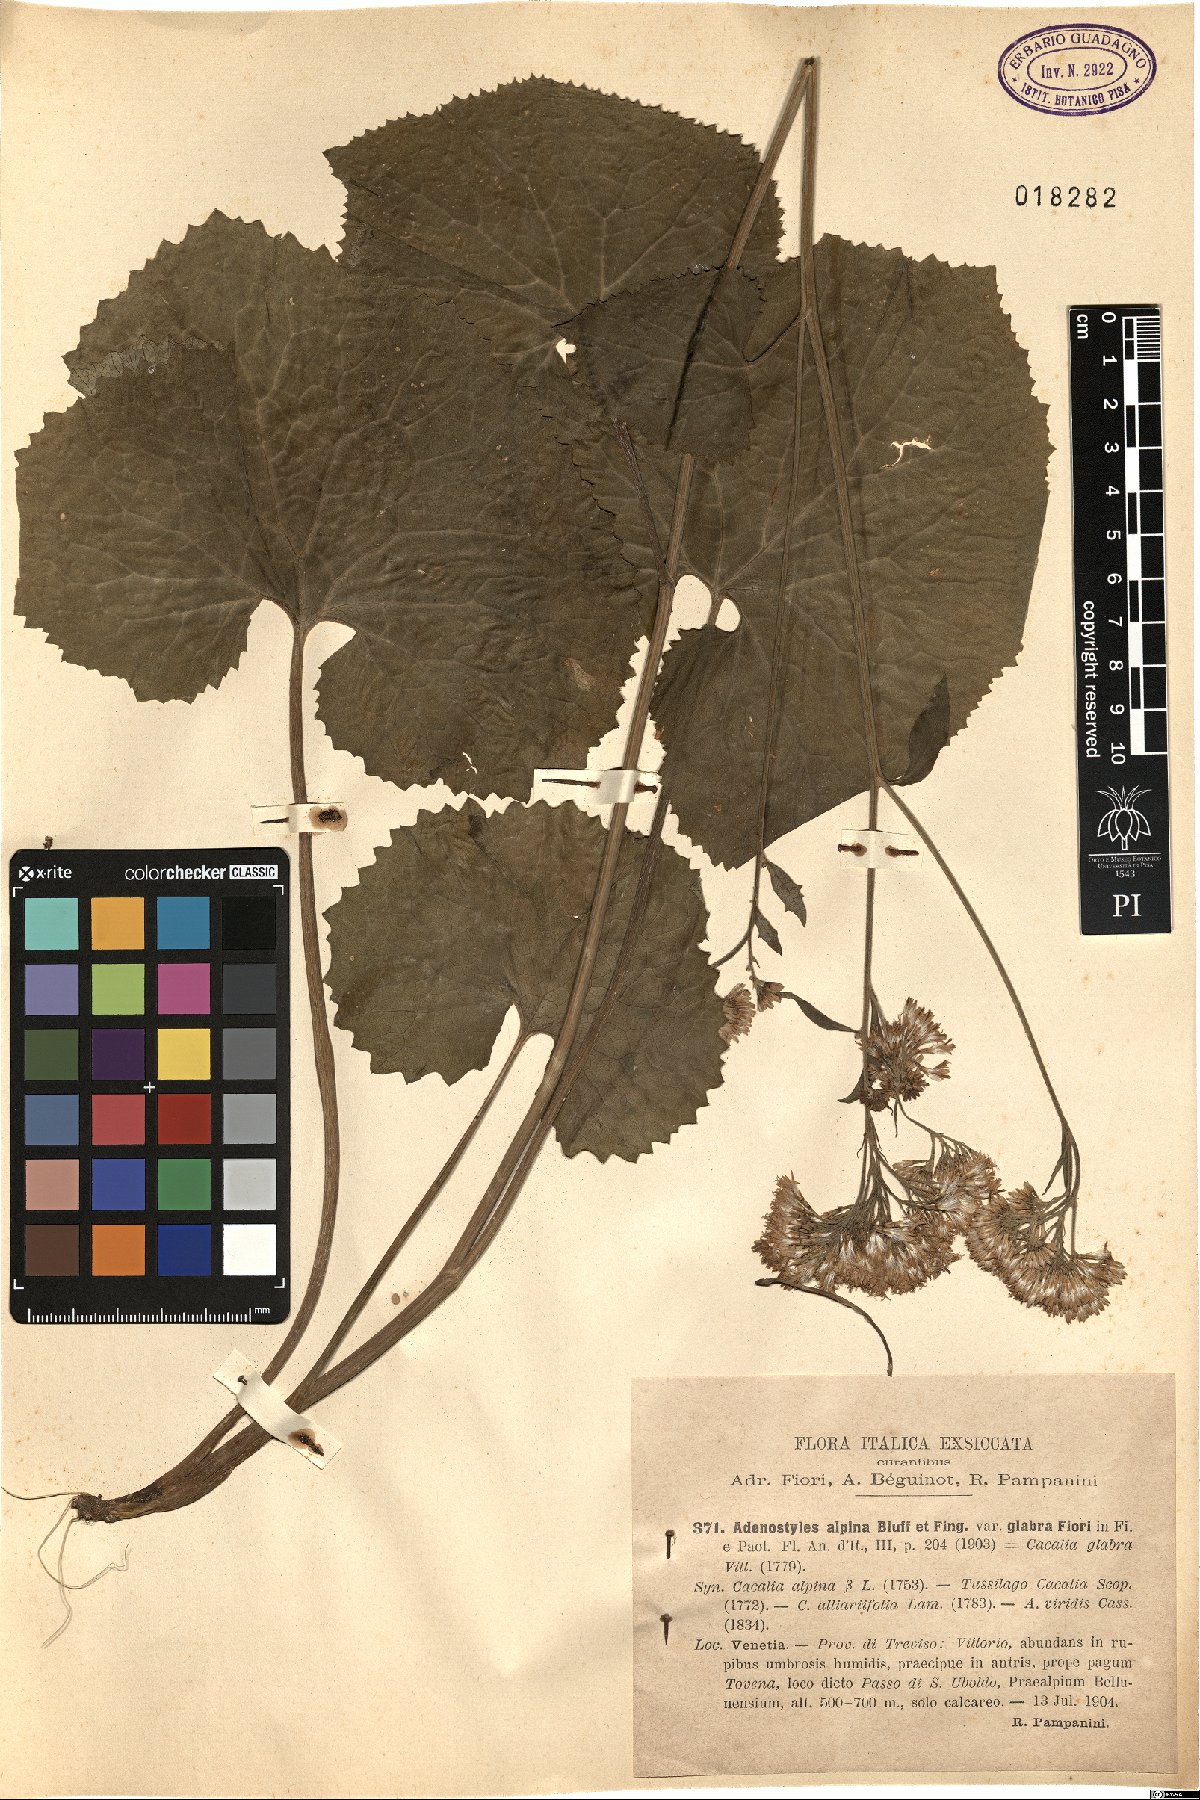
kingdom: Plantae
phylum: Tracheophyta
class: Magnoliopsida
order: Asterales
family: Asteraceae
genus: Adenostyles
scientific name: Adenostyles alpina
